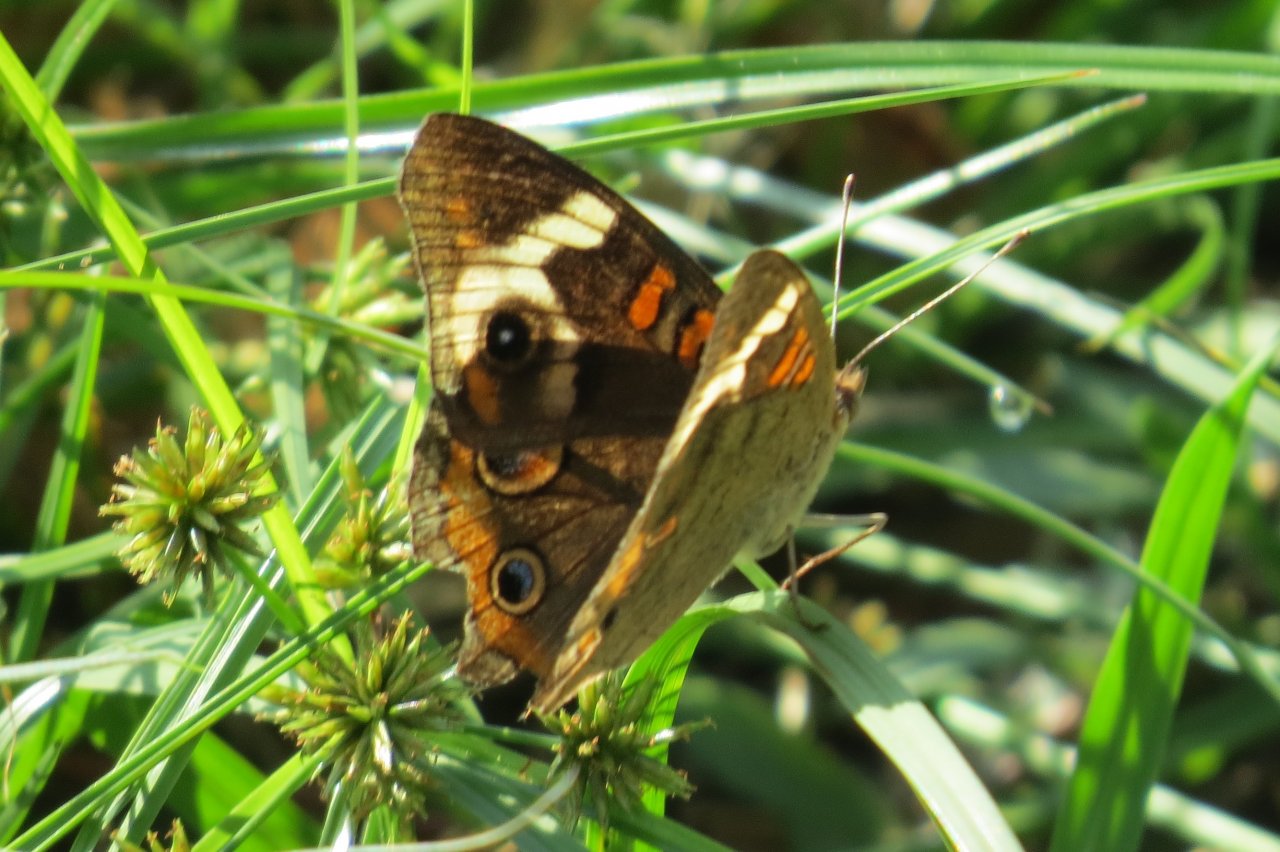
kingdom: Animalia
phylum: Arthropoda
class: Insecta
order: Lepidoptera
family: Nymphalidae
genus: Junonia
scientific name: Junonia coenia
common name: Common Buckeye
